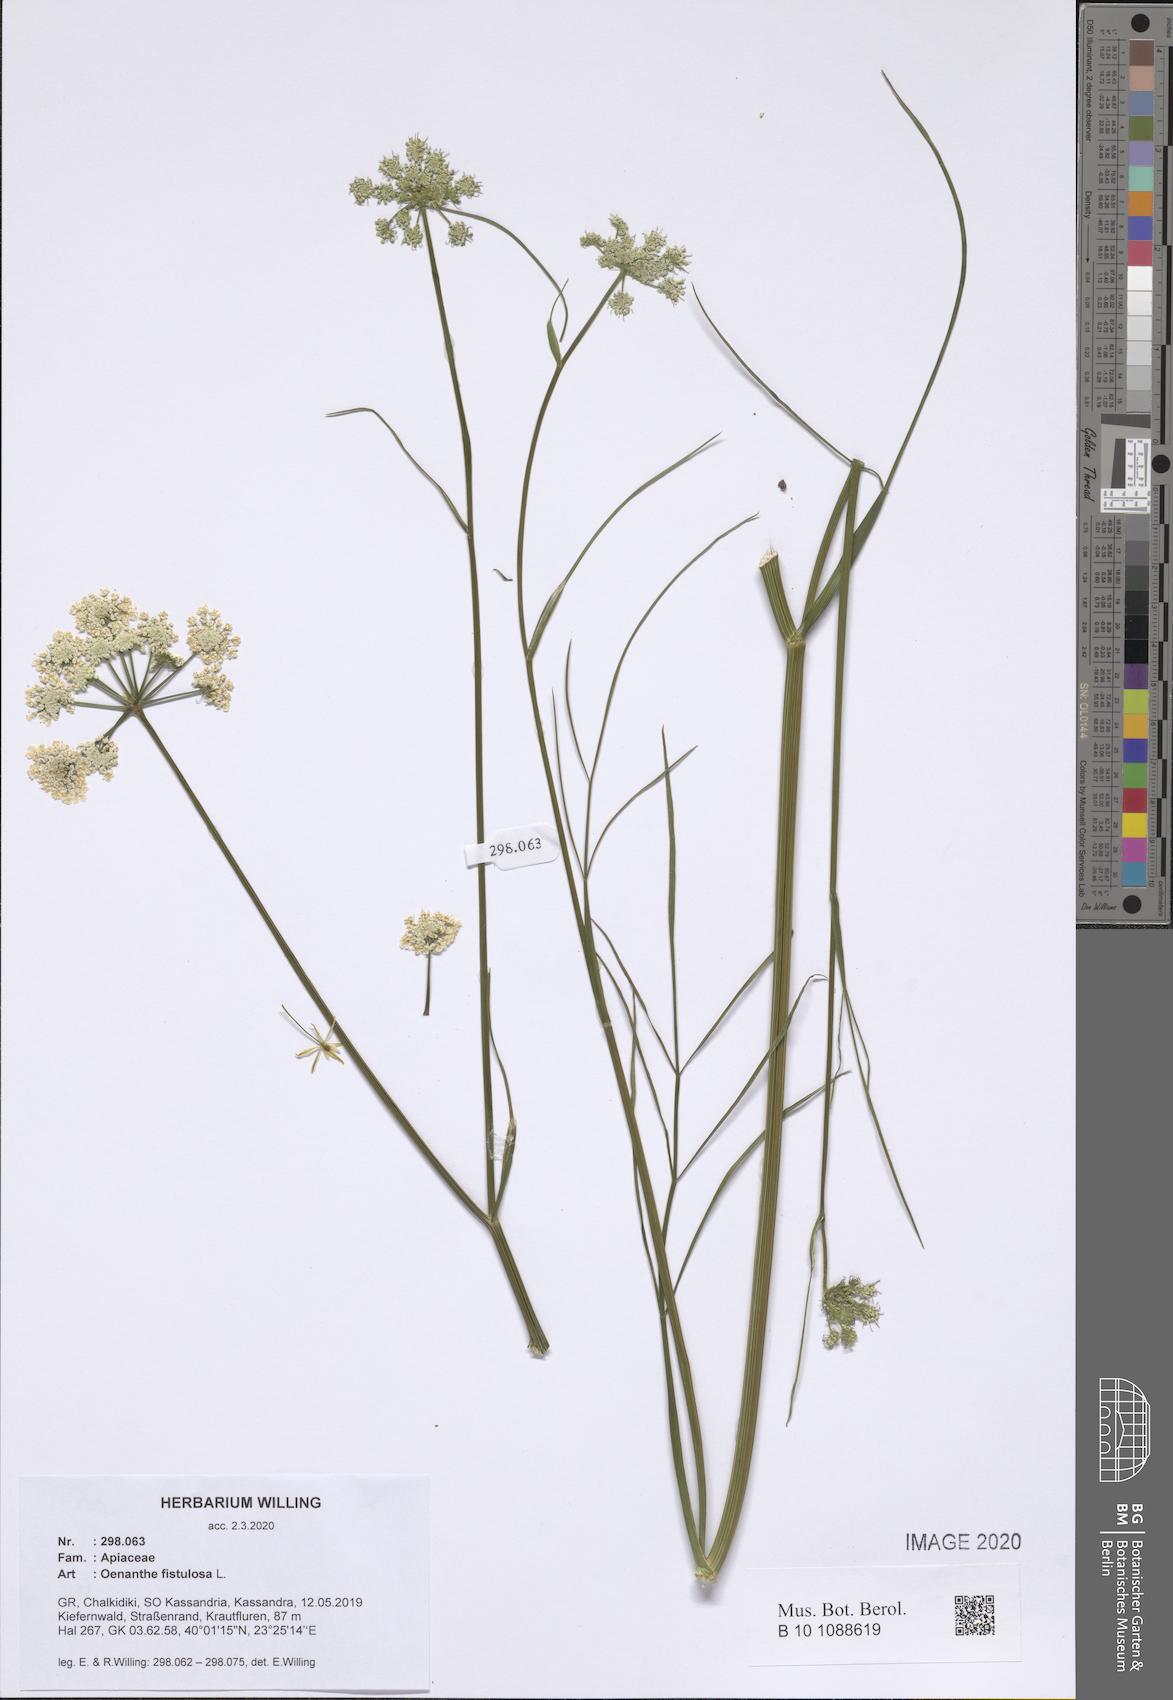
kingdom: Plantae
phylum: Tracheophyta
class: Magnoliopsida
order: Apiales
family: Apiaceae
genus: Oenanthe
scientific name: Oenanthe fistulosa
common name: Tubular water-dropwort
